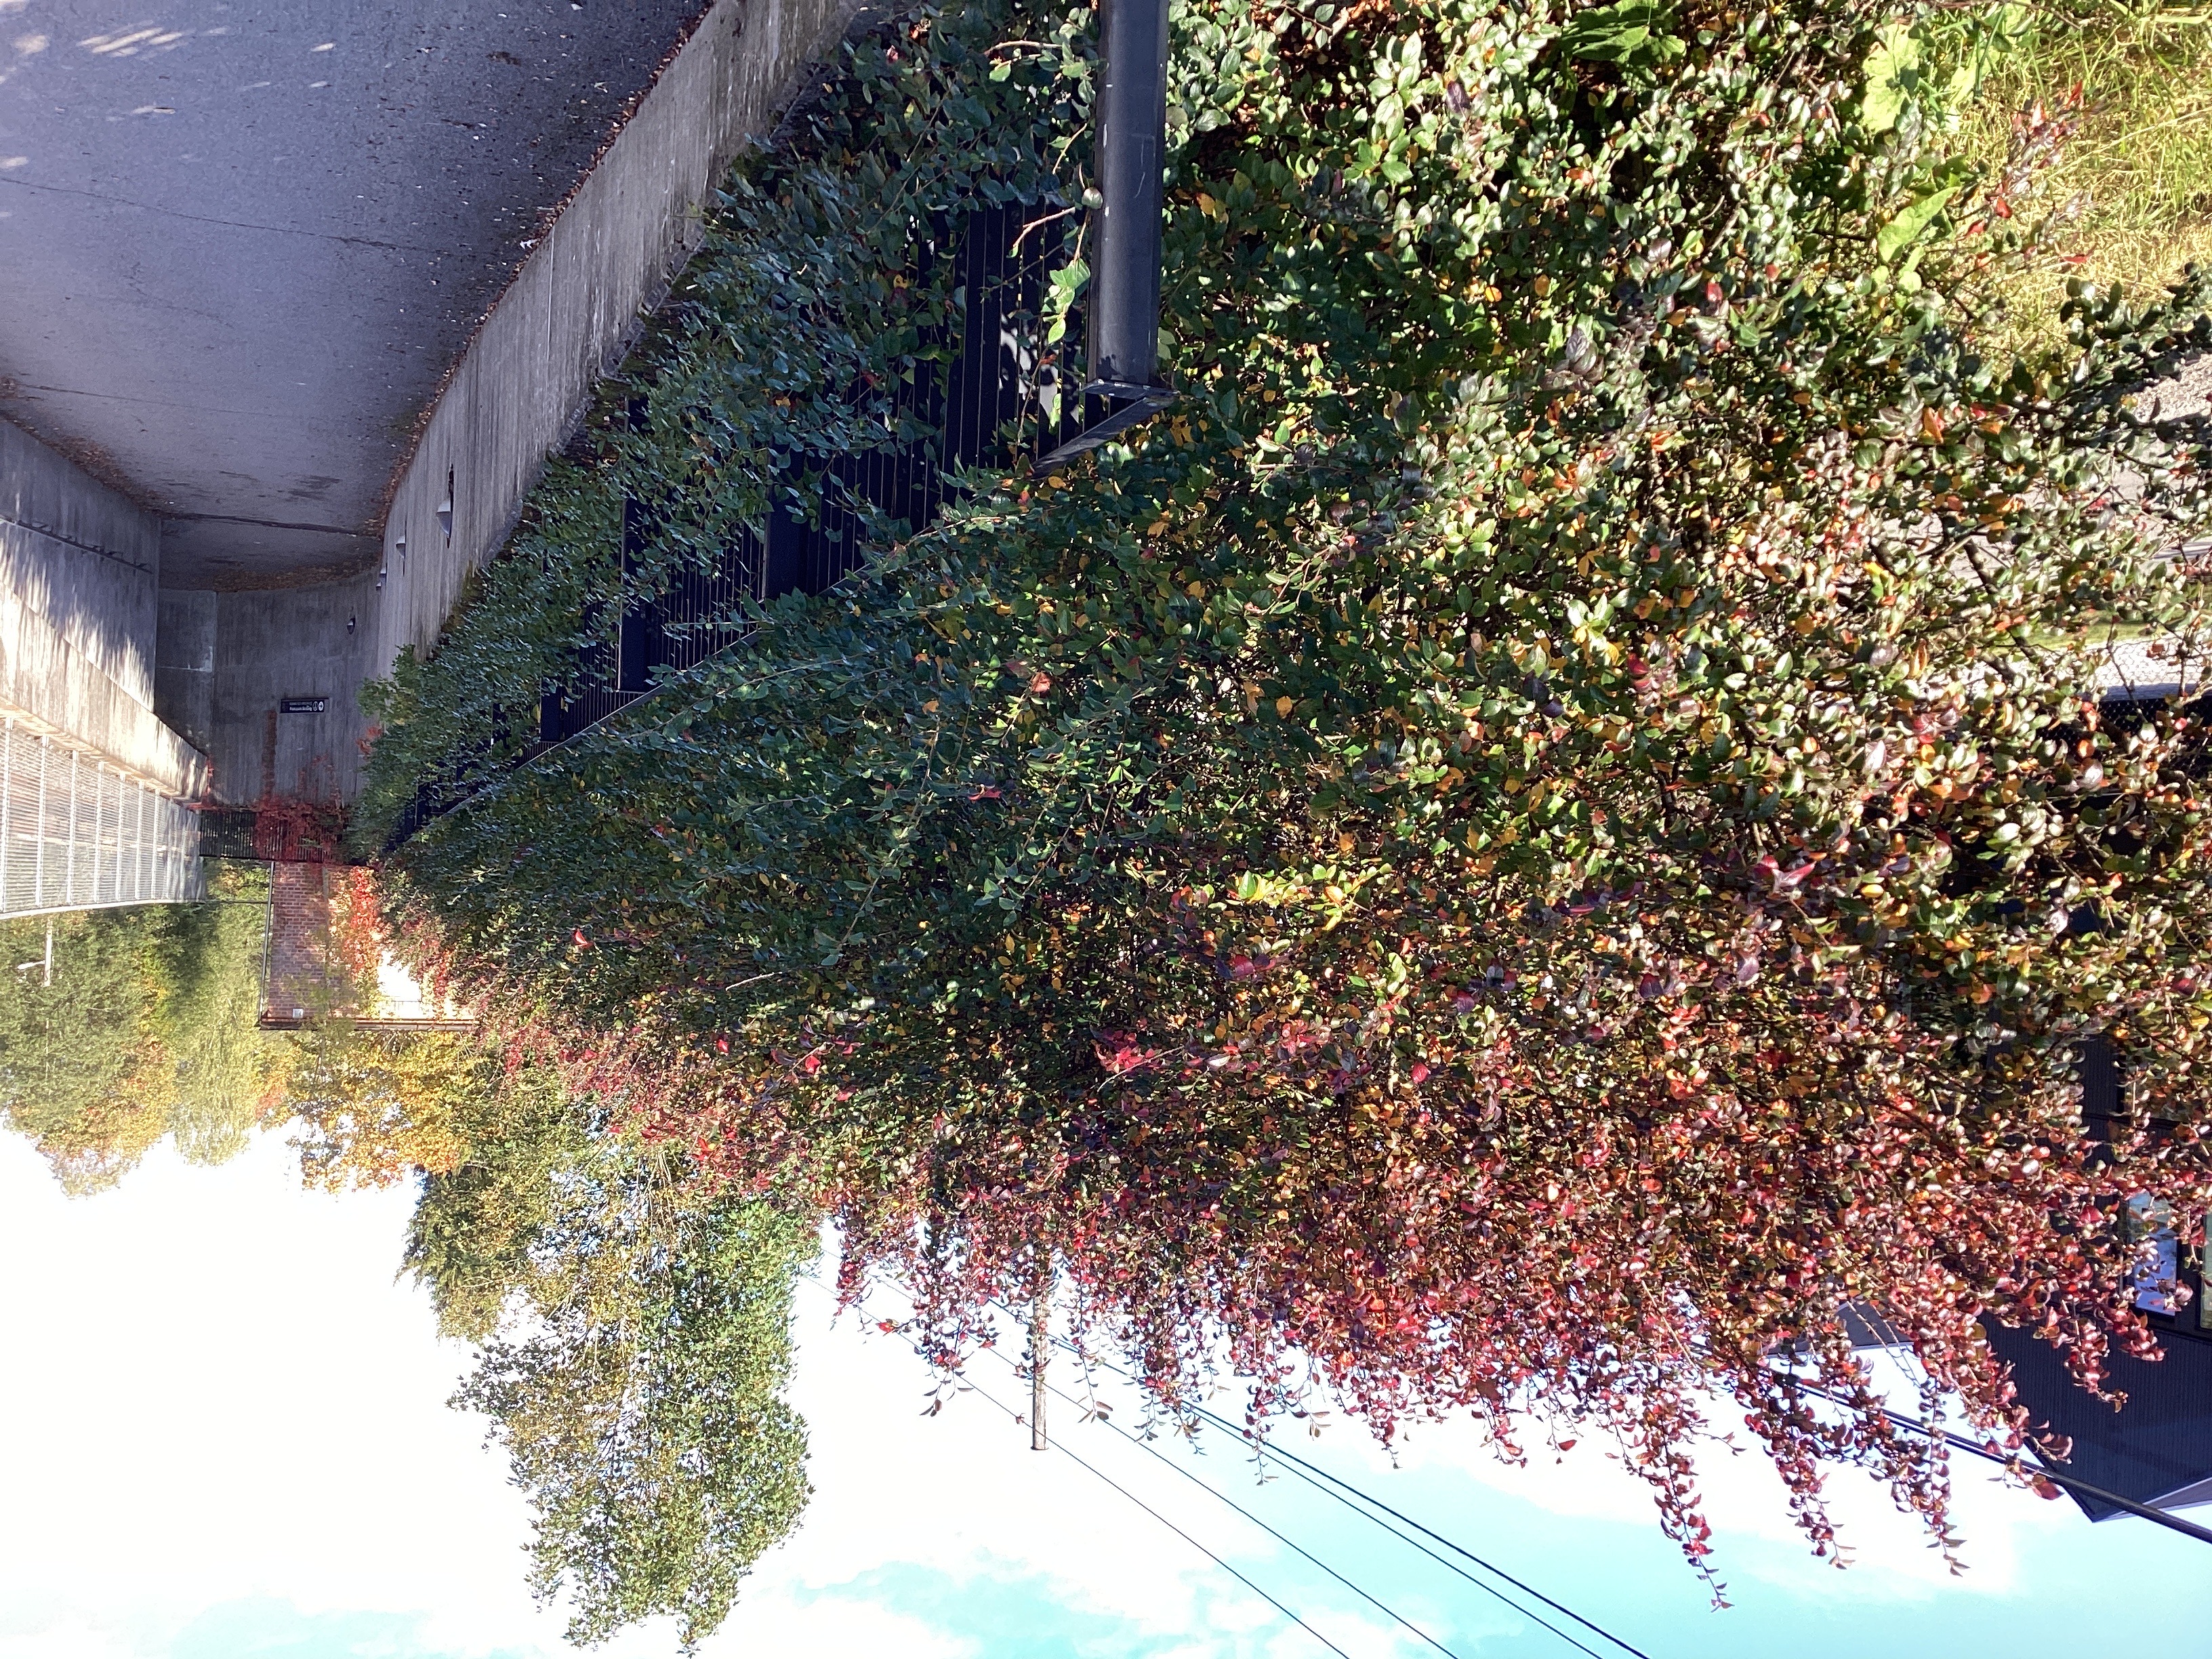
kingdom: Plantae
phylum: Tracheophyta
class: Magnoliopsida
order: Rosales
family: Rosaceae
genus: Cotoneaster
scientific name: Cotoneaster acutifolius
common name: blankmispel
